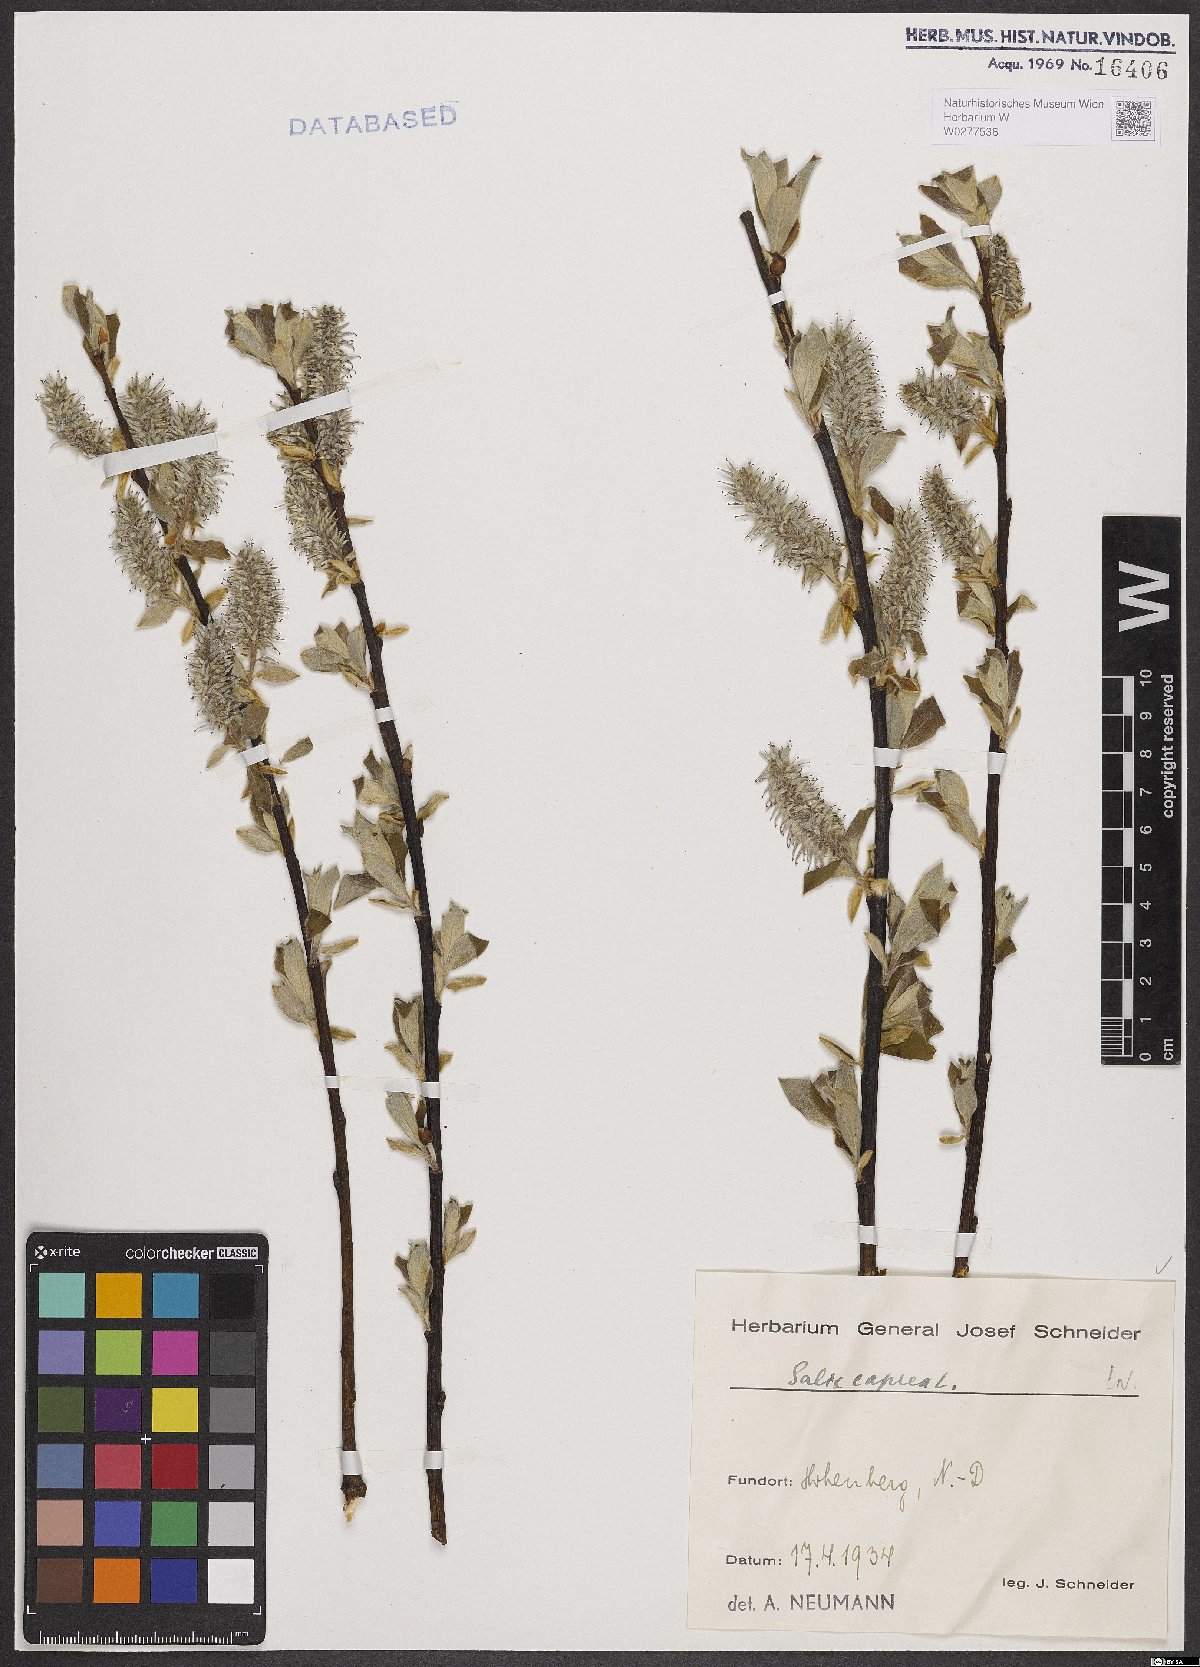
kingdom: Plantae
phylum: Tracheophyta
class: Magnoliopsida
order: Malpighiales
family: Salicaceae
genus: Salix
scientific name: Salix caprea
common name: Goat willow
